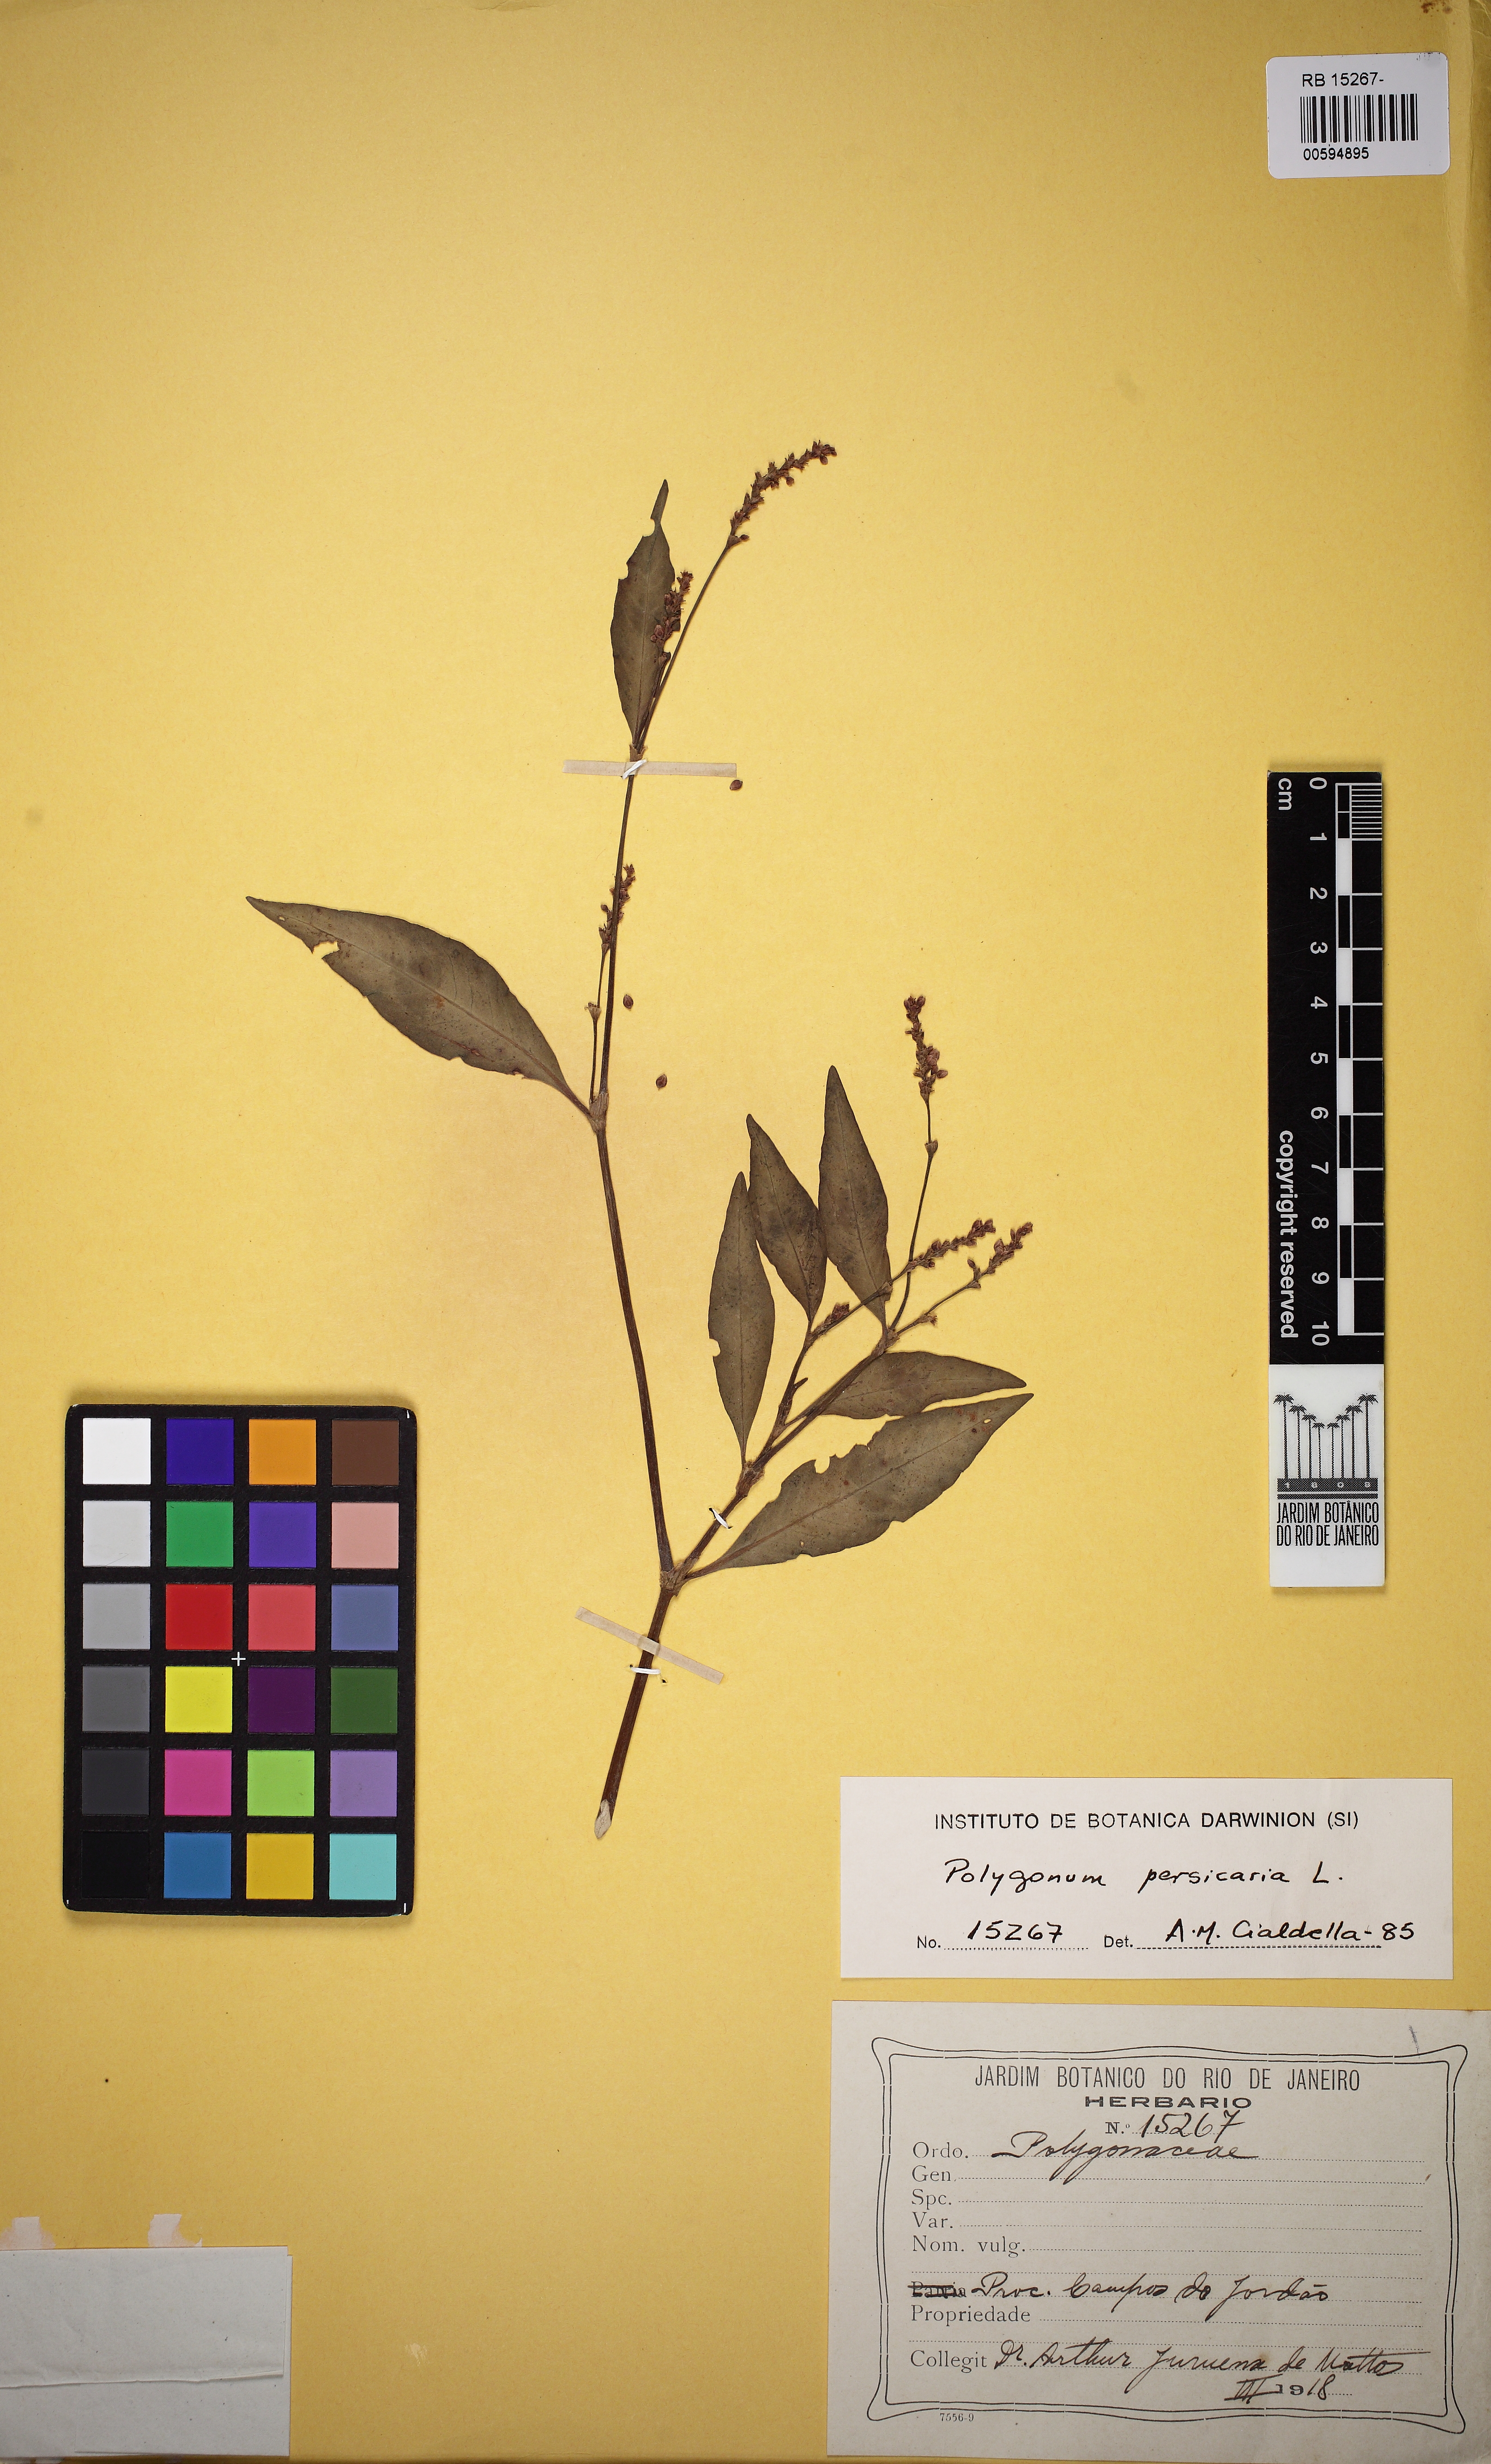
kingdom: Plantae
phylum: Tracheophyta
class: Magnoliopsida
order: Caryophyllales
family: Polygonaceae
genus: Persicaria
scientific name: Persicaria maculosa
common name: Redshank
